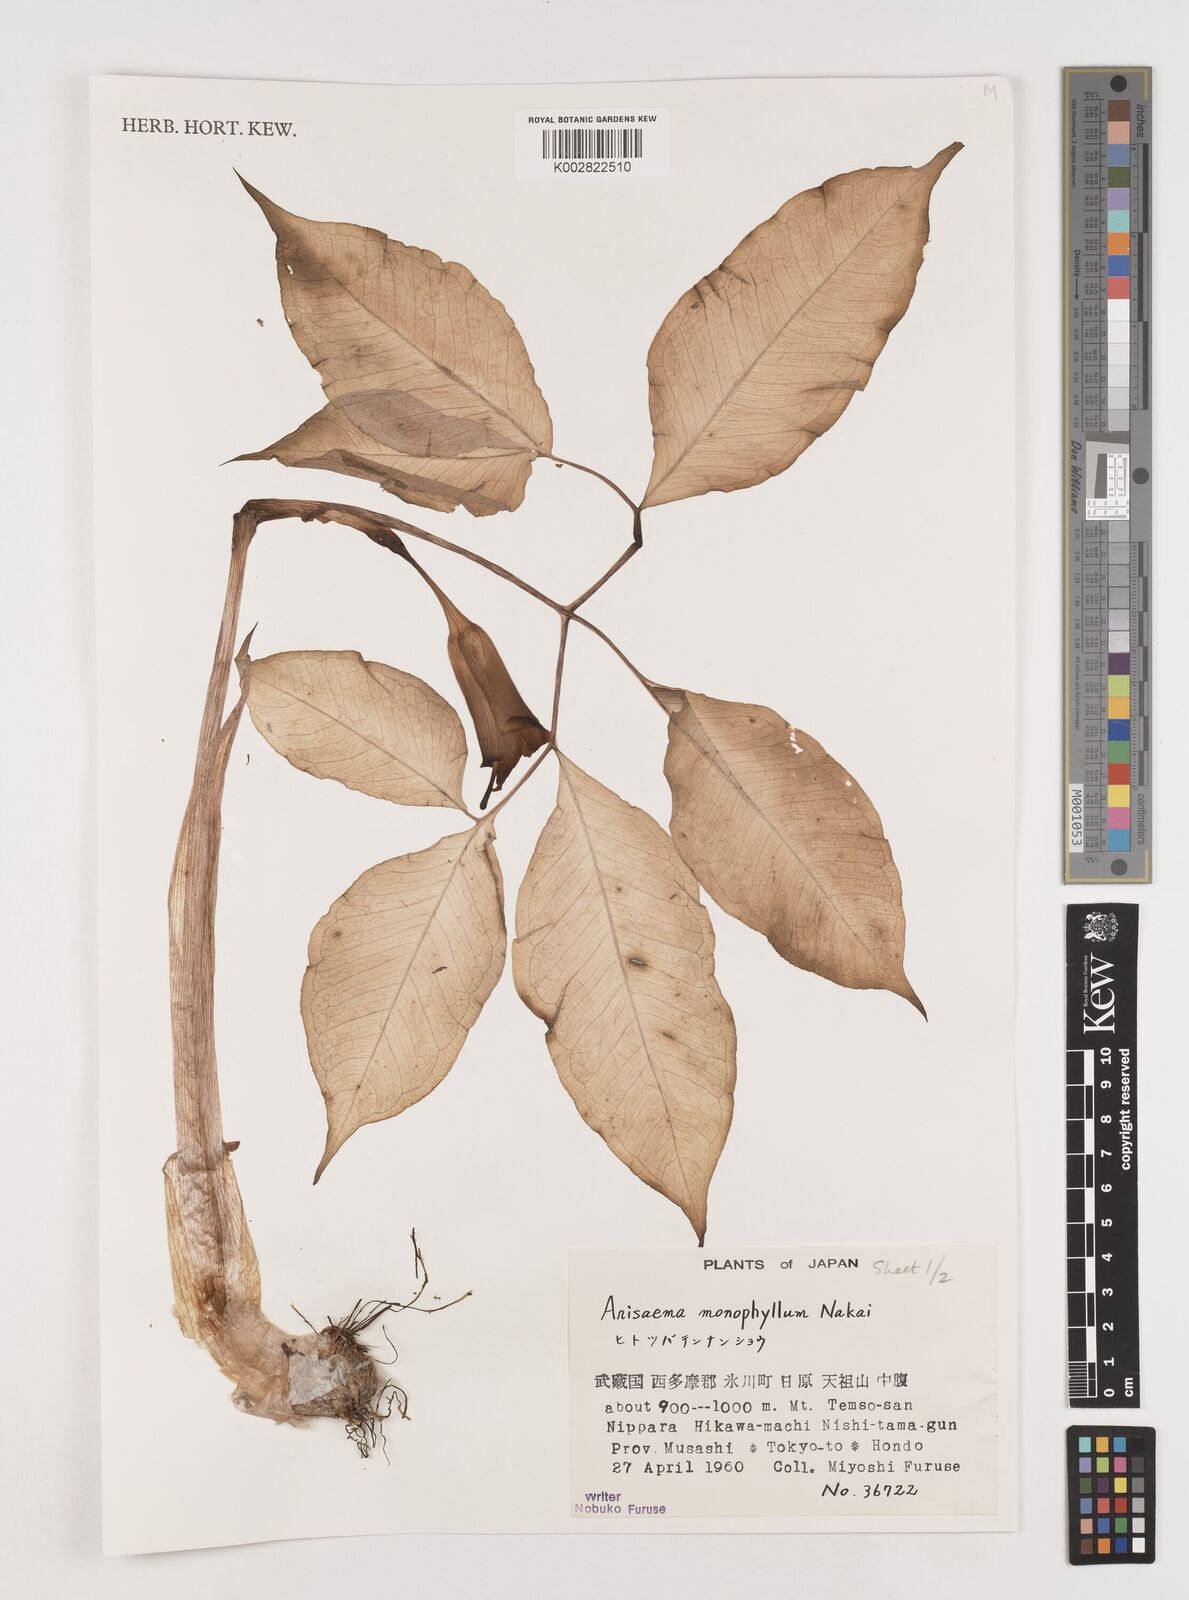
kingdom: Plantae
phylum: Tracheophyta
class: Liliopsida
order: Alismatales
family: Araceae
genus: Arisaema
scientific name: Arisaema monophyllum
